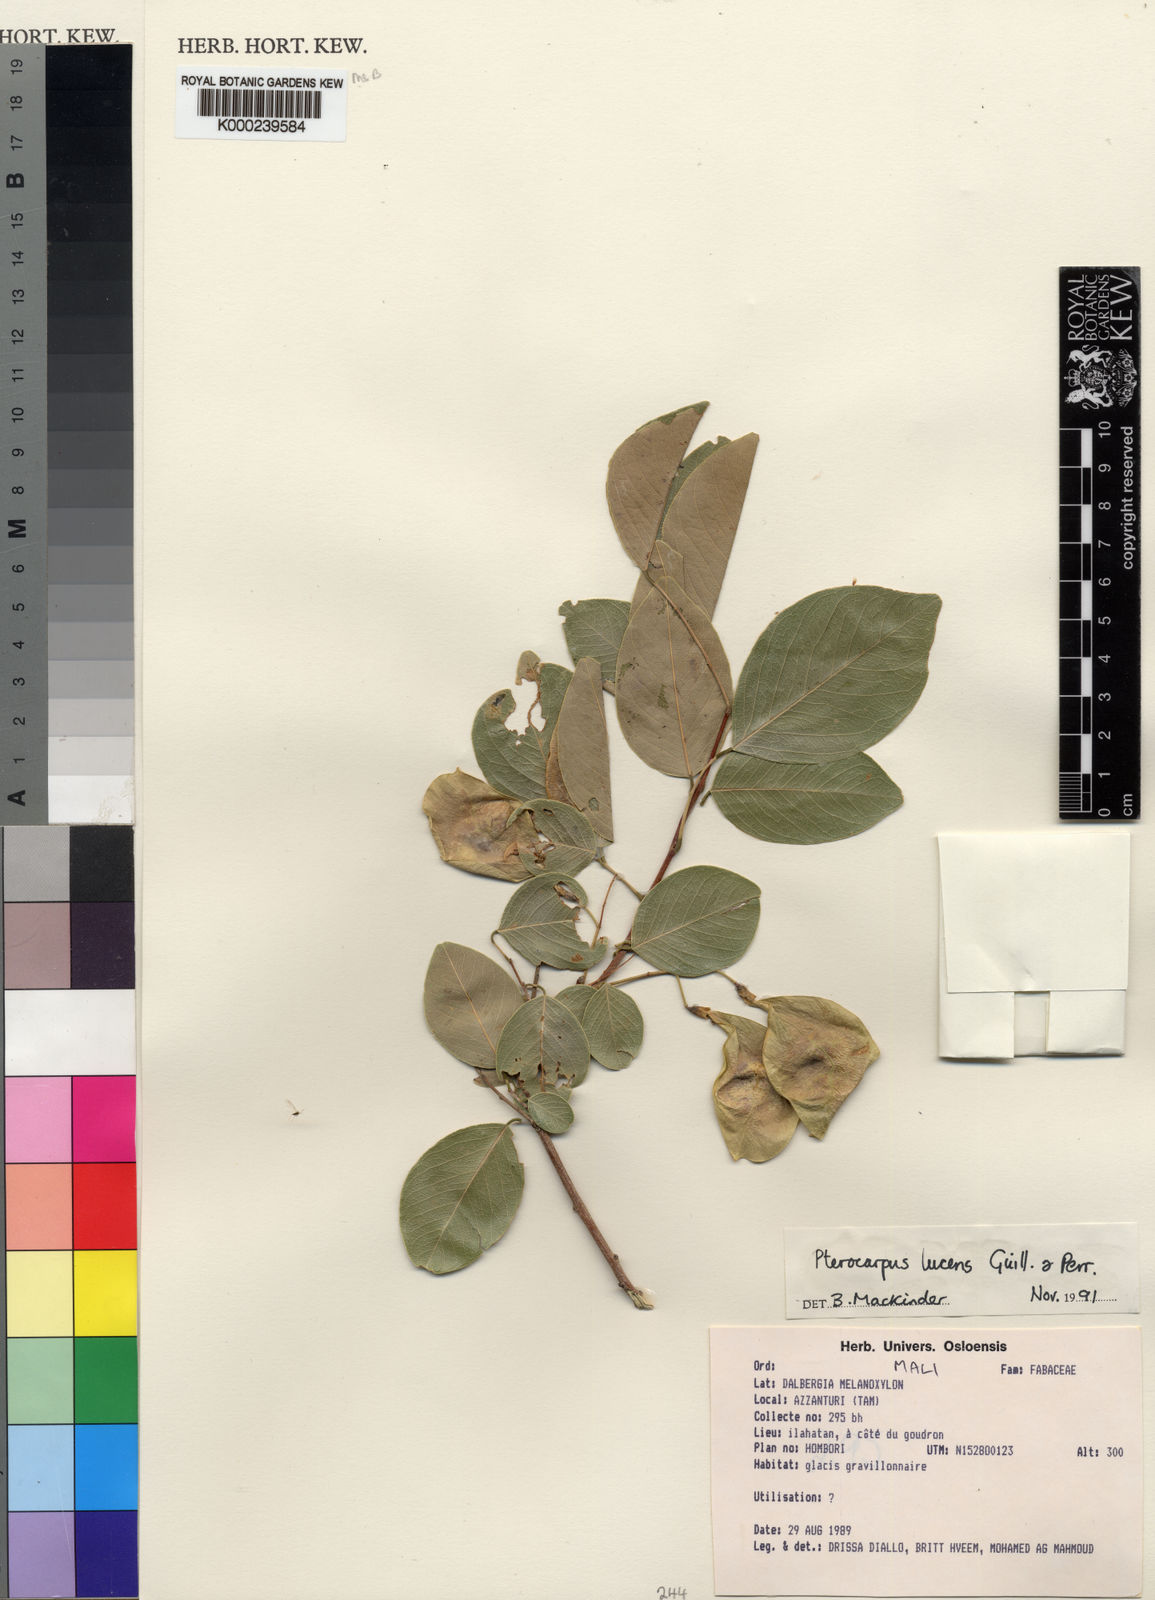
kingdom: Plantae
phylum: Tracheophyta
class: Magnoliopsida
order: Fabales
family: Fabaceae
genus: Pterocarpus
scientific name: Pterocarpus lucens
